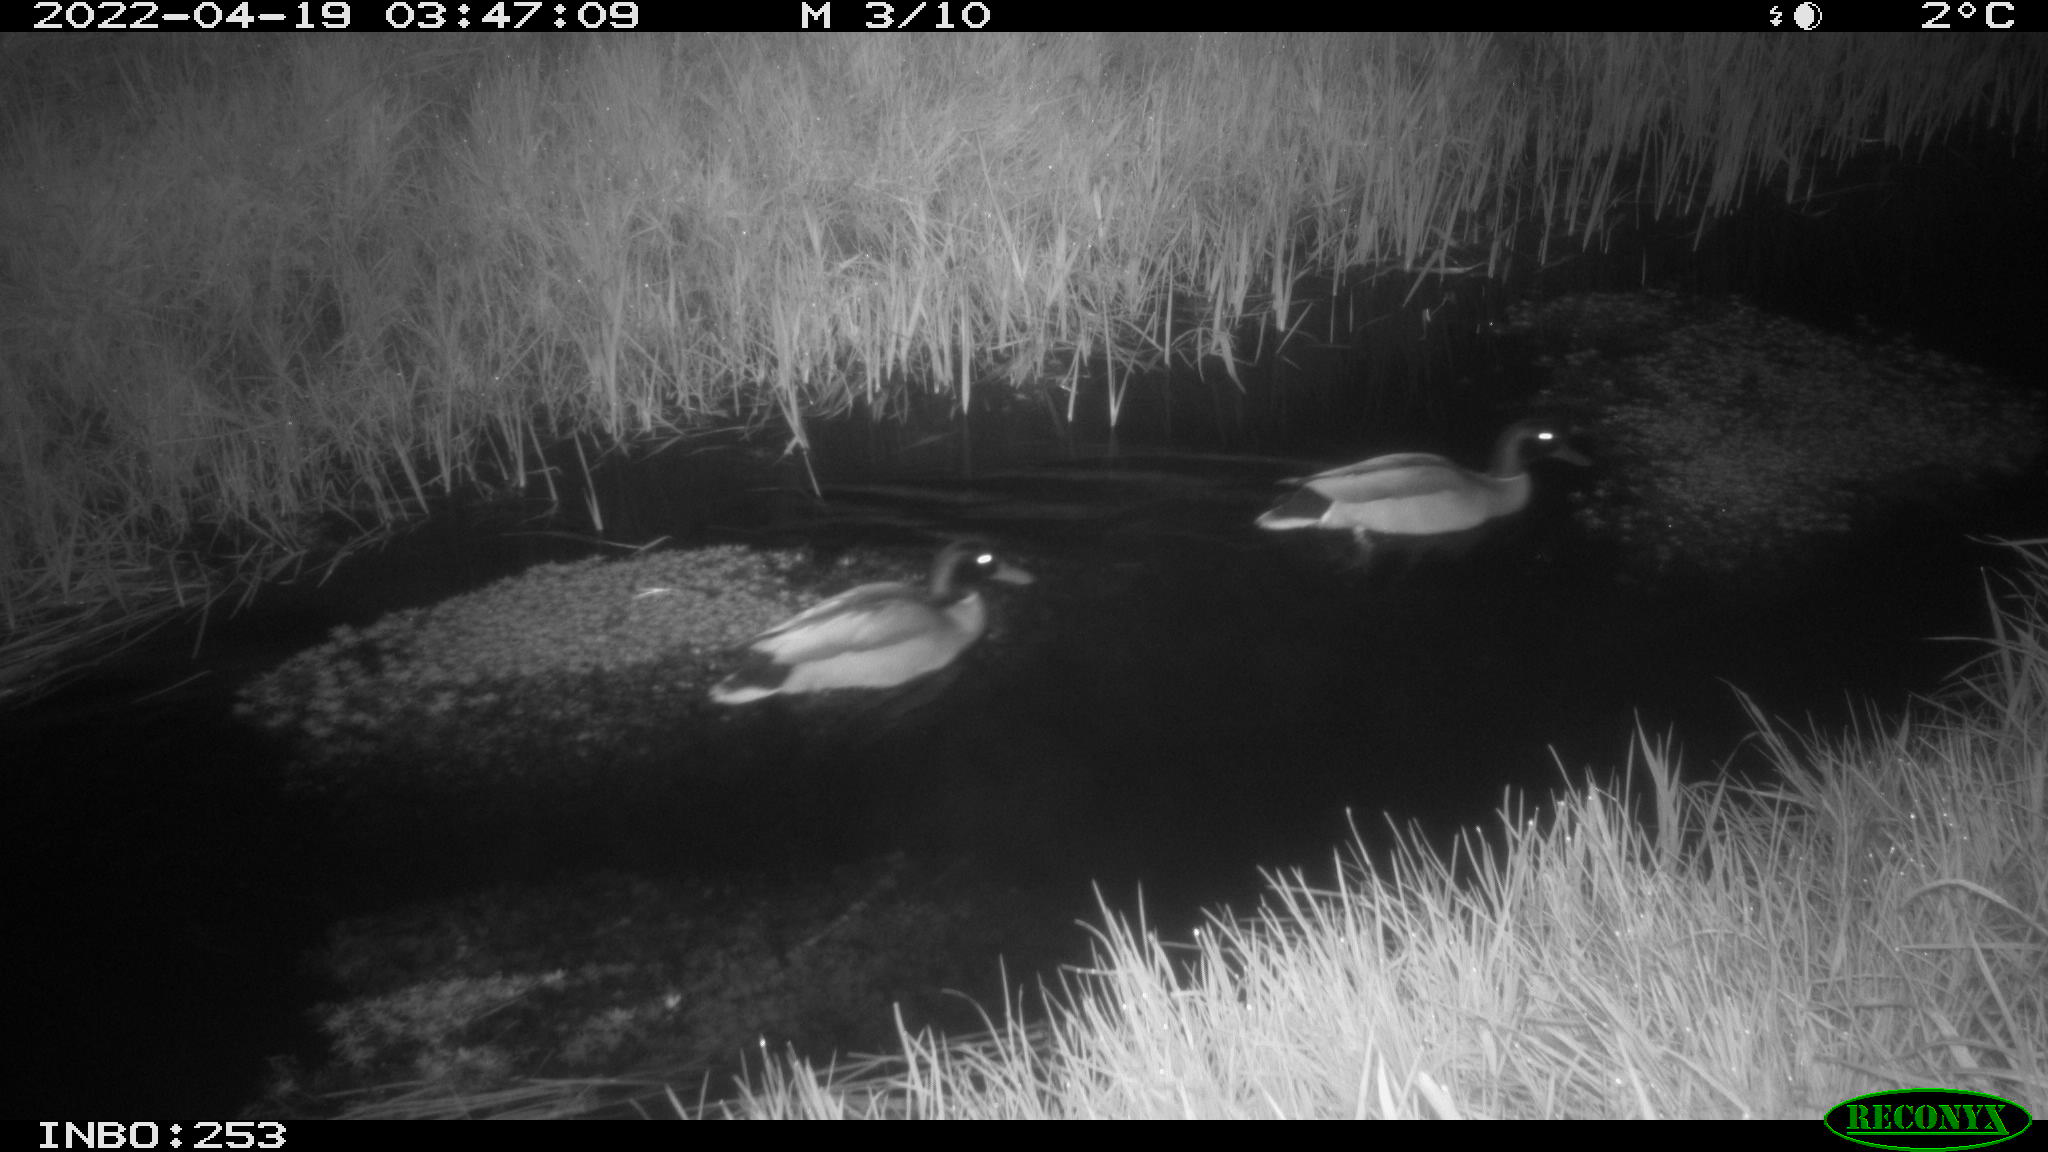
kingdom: Animalia
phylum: Chordata
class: Aves
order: Anseriformes
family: Anatidae
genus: Anas
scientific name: Anas platyrhynchos
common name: Mallard
